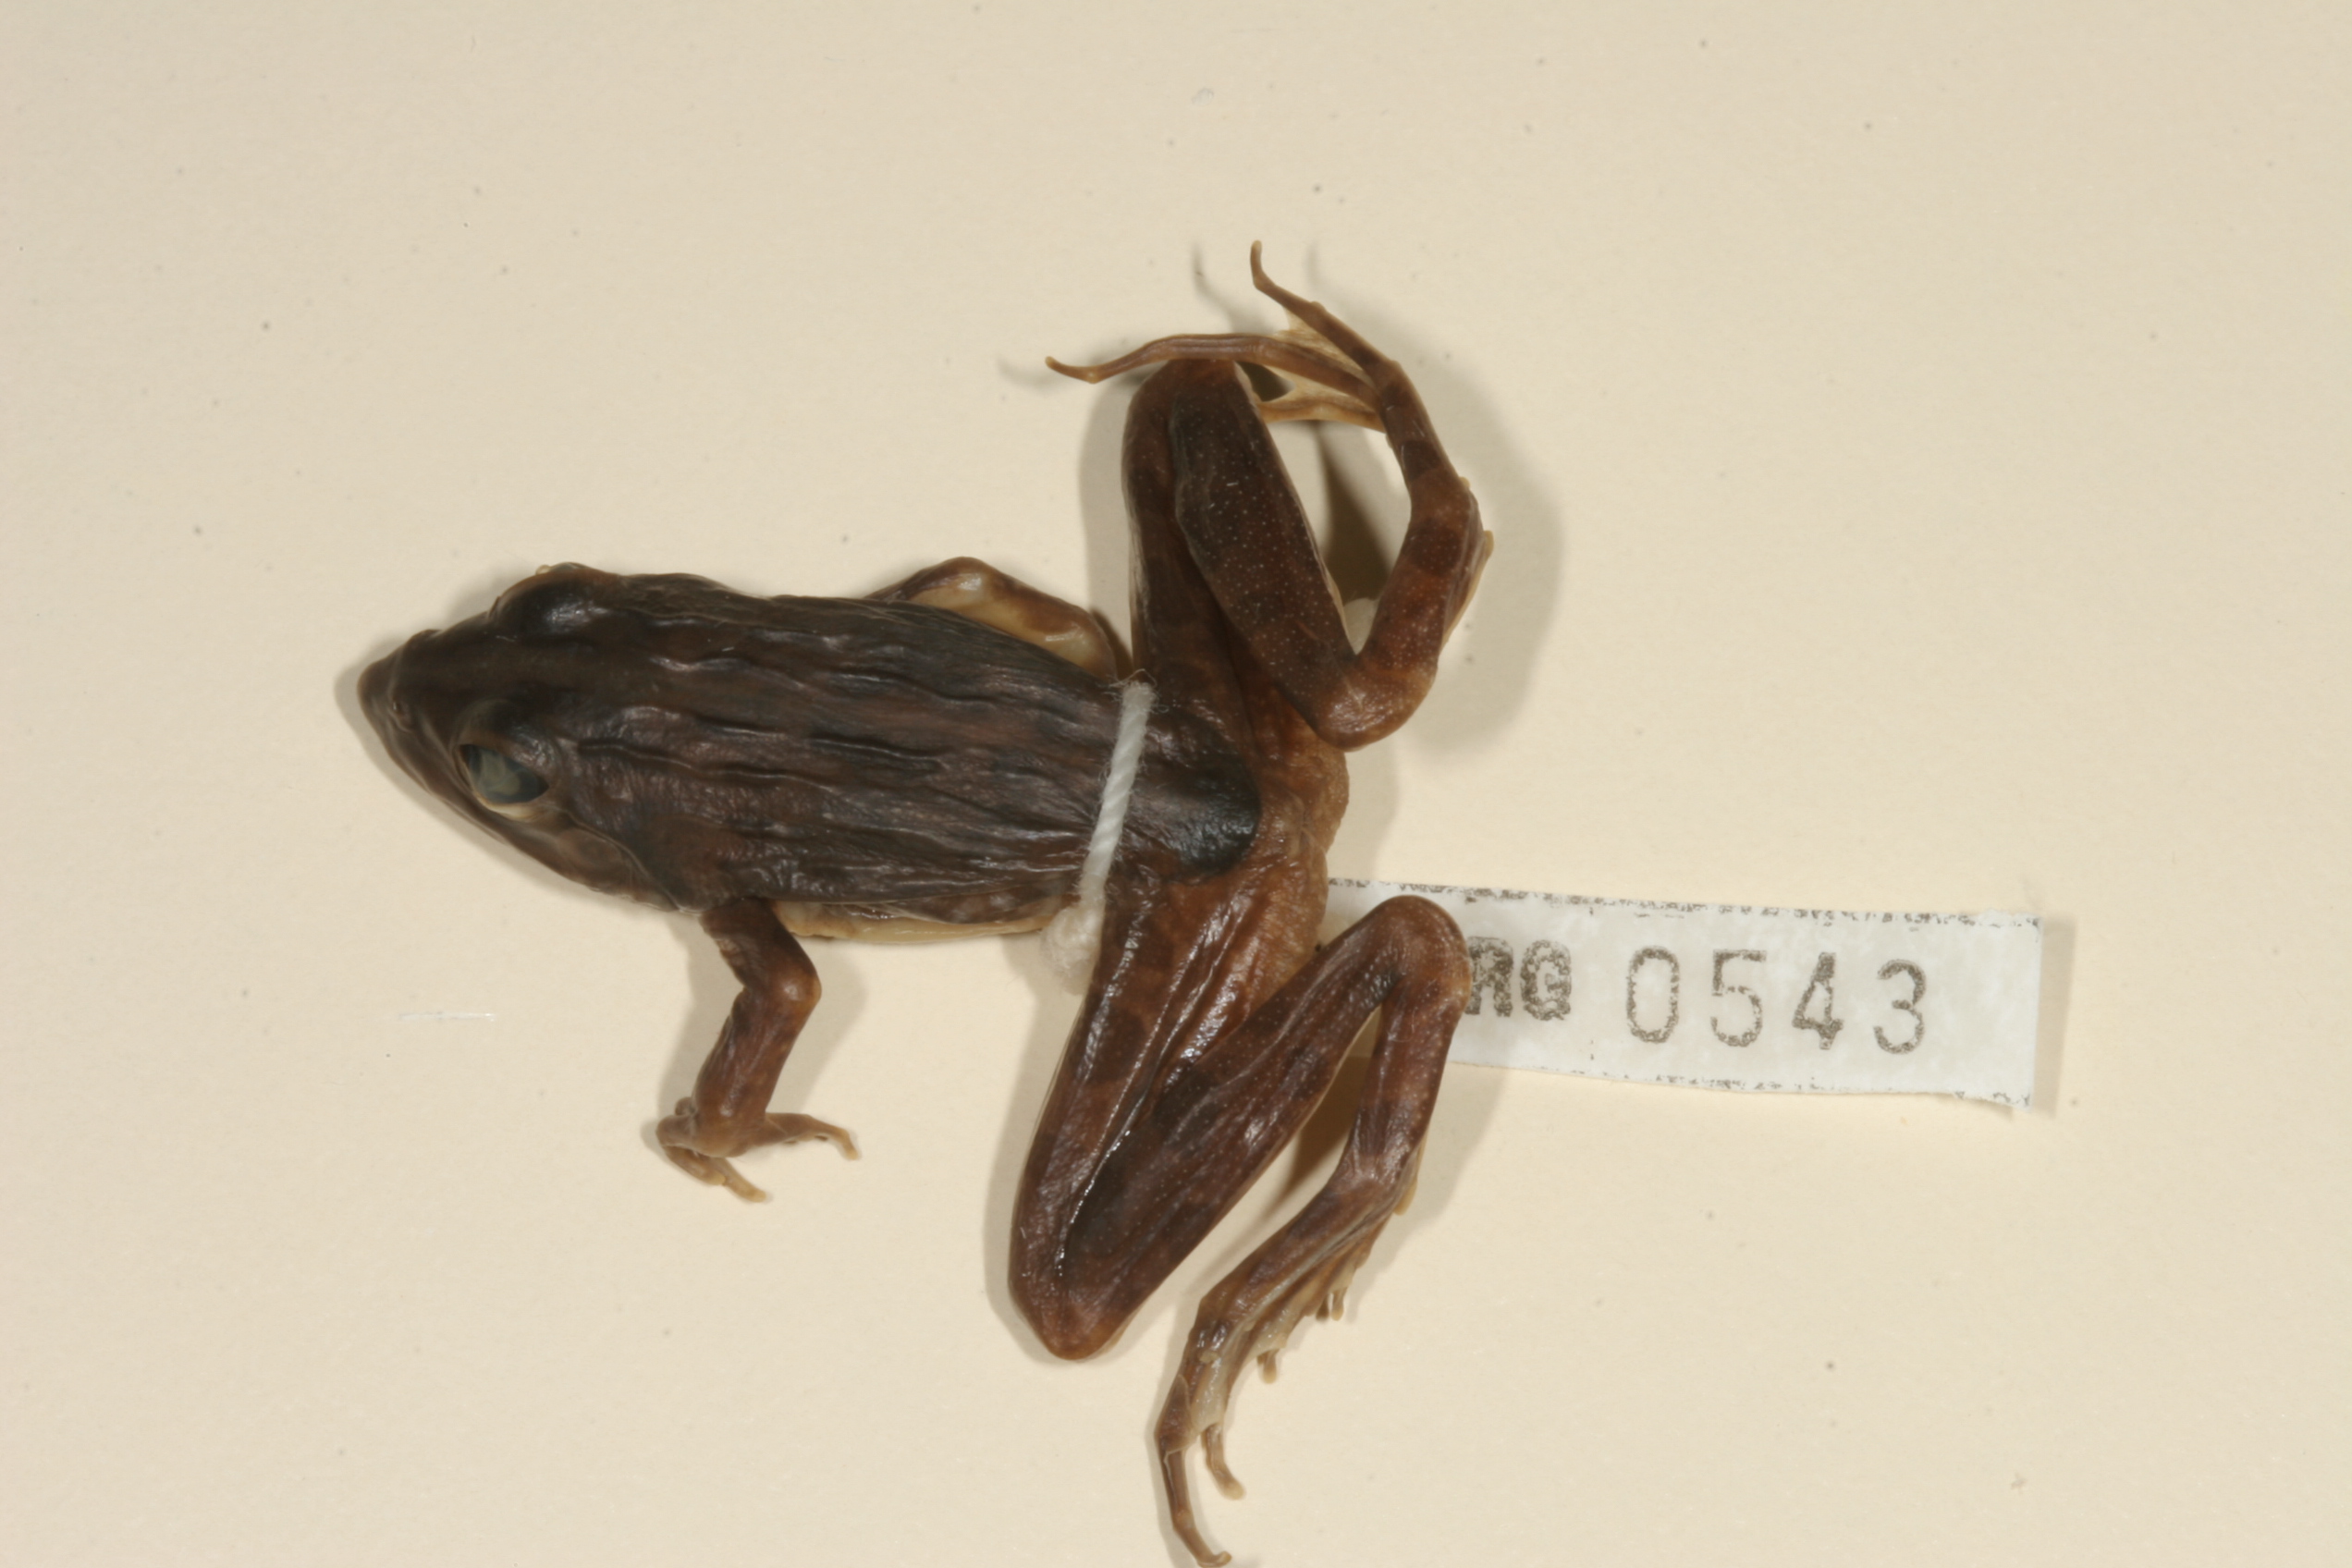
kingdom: Animalia
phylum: Chordata
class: Amphibia
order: Anura
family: Pyxicephalidae
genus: Amietia
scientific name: Amietia angolensis
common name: Dusky-throated frog
